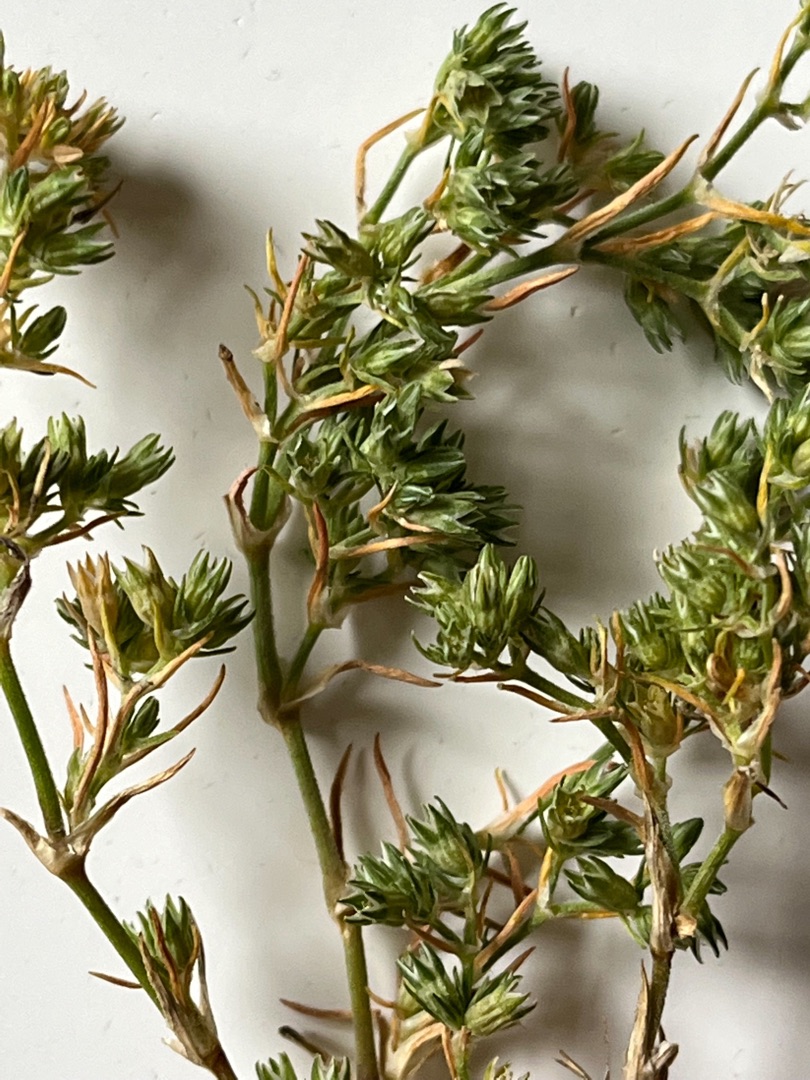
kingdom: Plantae
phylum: Tracheophyta
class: Magnoliopsida
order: Caryophyllales
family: Caryophyllaceae
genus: Scleranthus
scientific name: Scleranthus annuus
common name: Bakke-knavel
